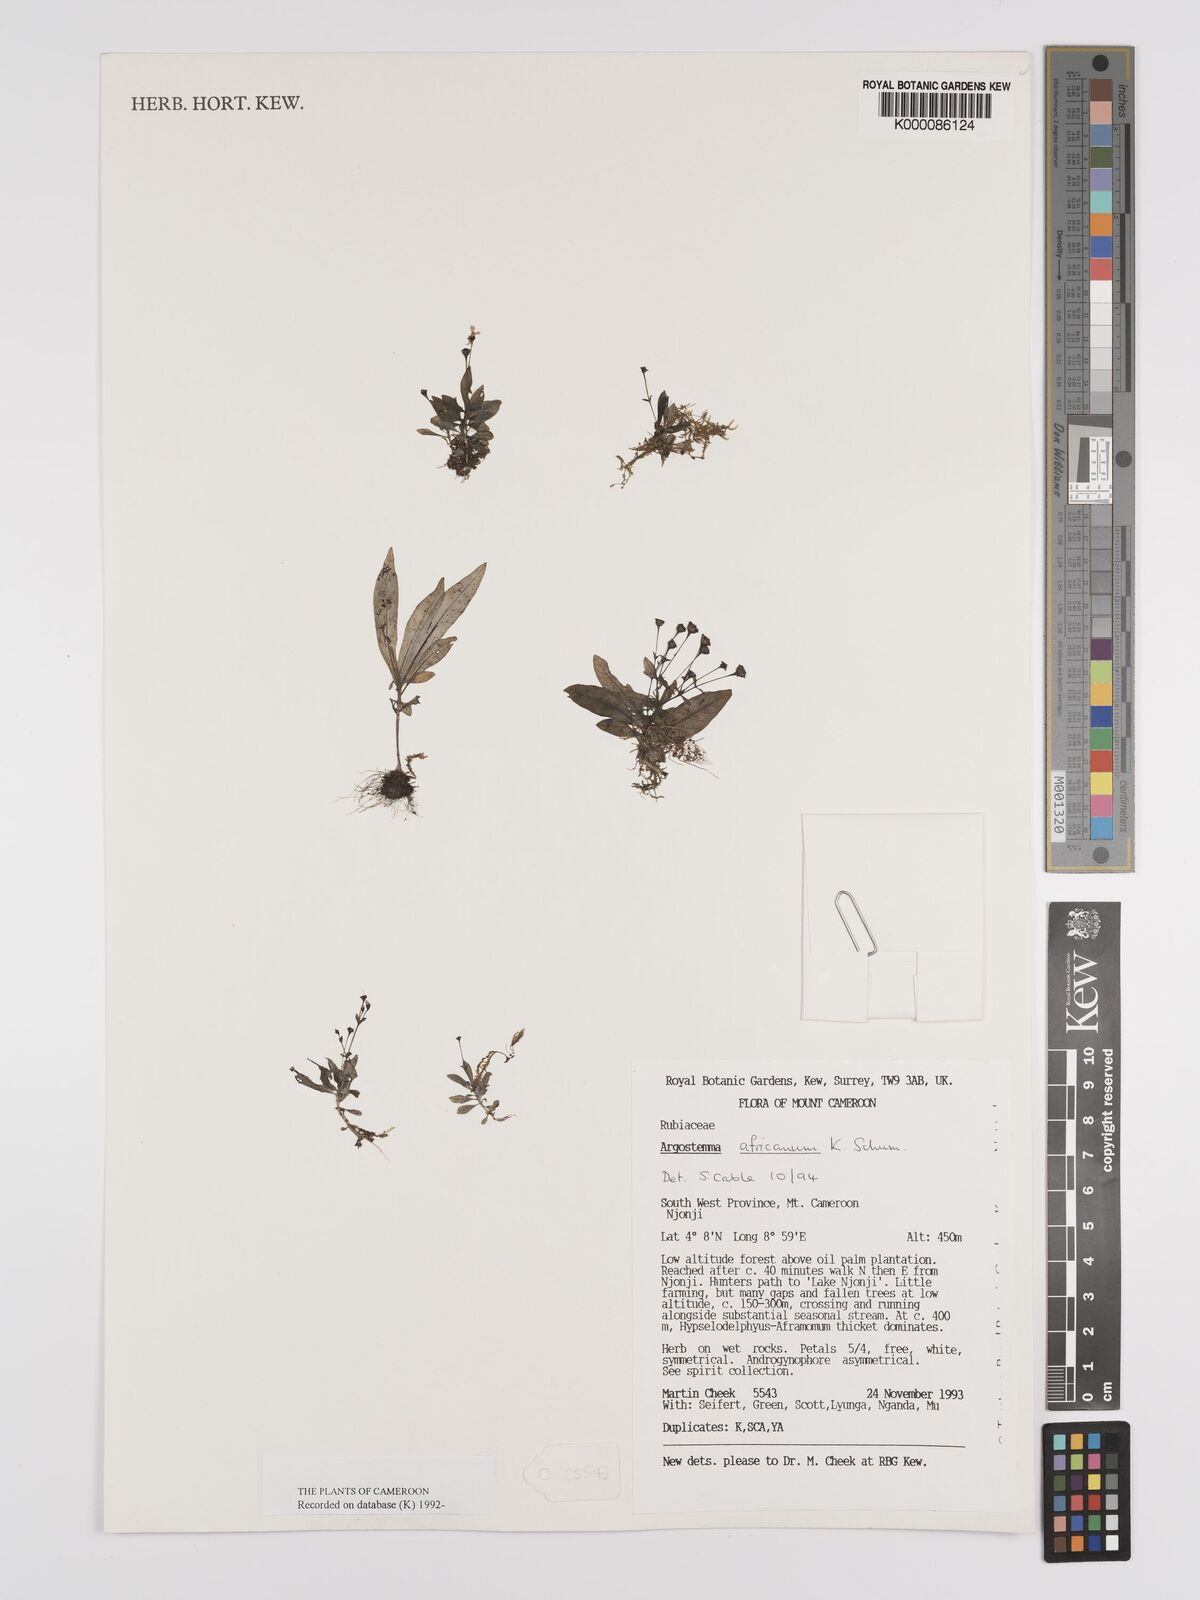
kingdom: Plantae
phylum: Tracheophyta
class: Magnoliopsida
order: Gentianales
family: Rubiaceae
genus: Argostemma
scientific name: Argostemma africanum
